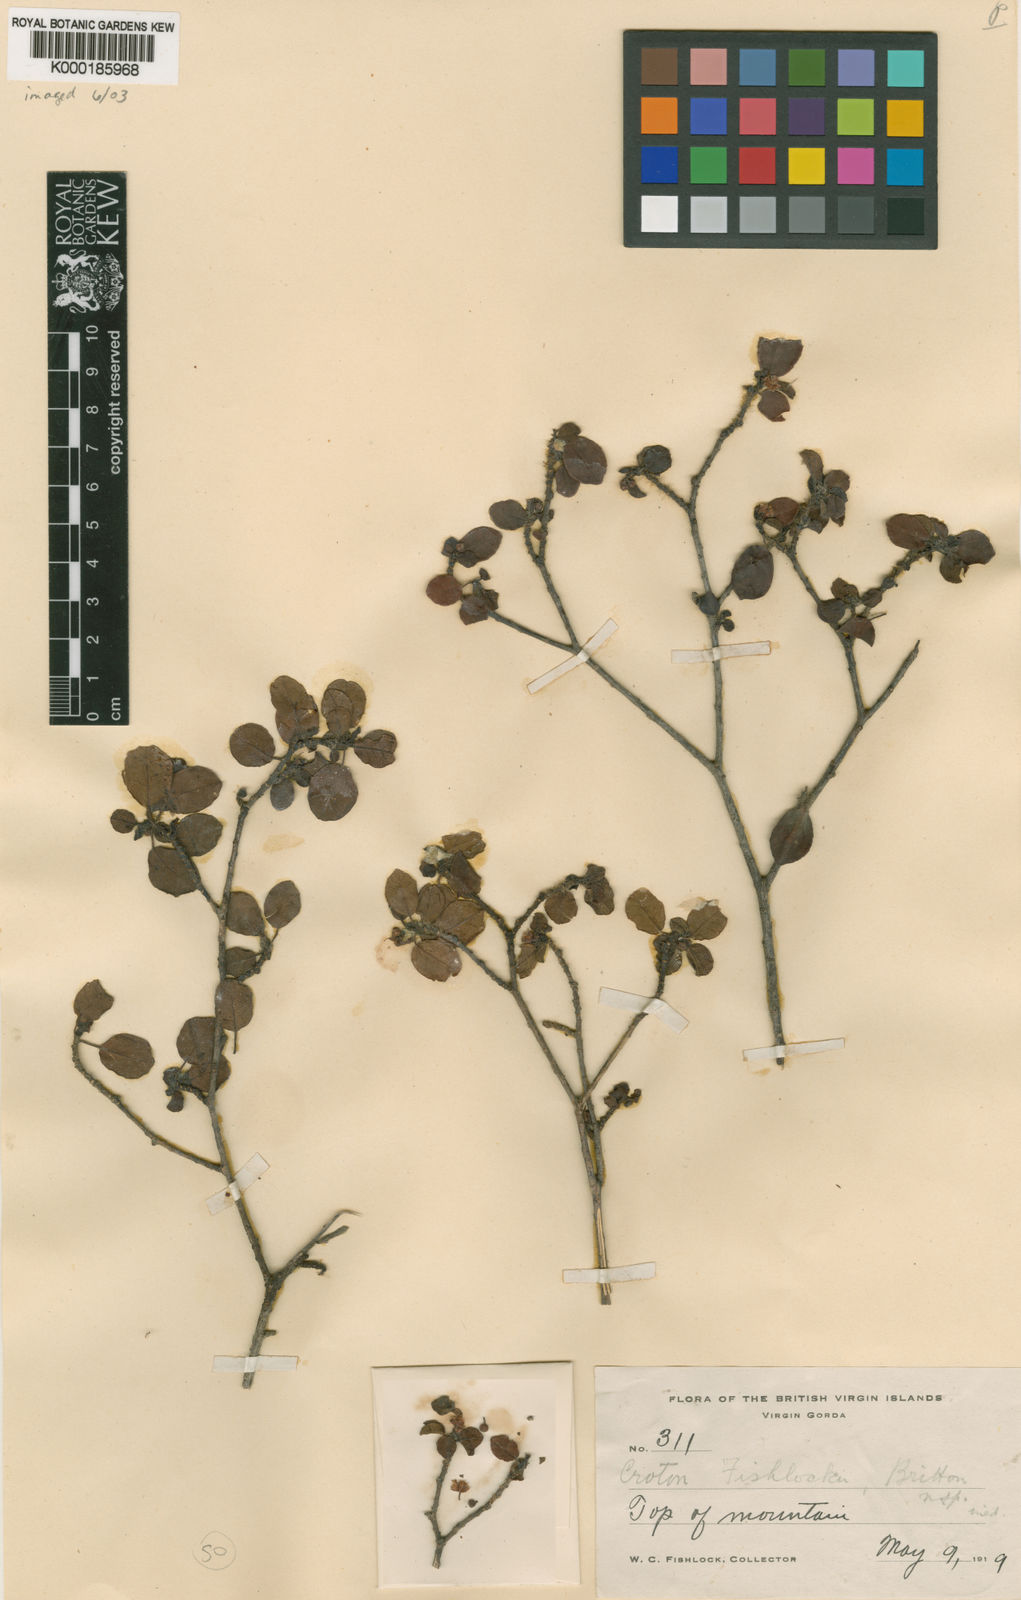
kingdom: Plantae
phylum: Tracheophyta
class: Magnoliopsida
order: Malpighiales
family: Euphorbiaceae
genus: Croton
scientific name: Croton fishlockii
